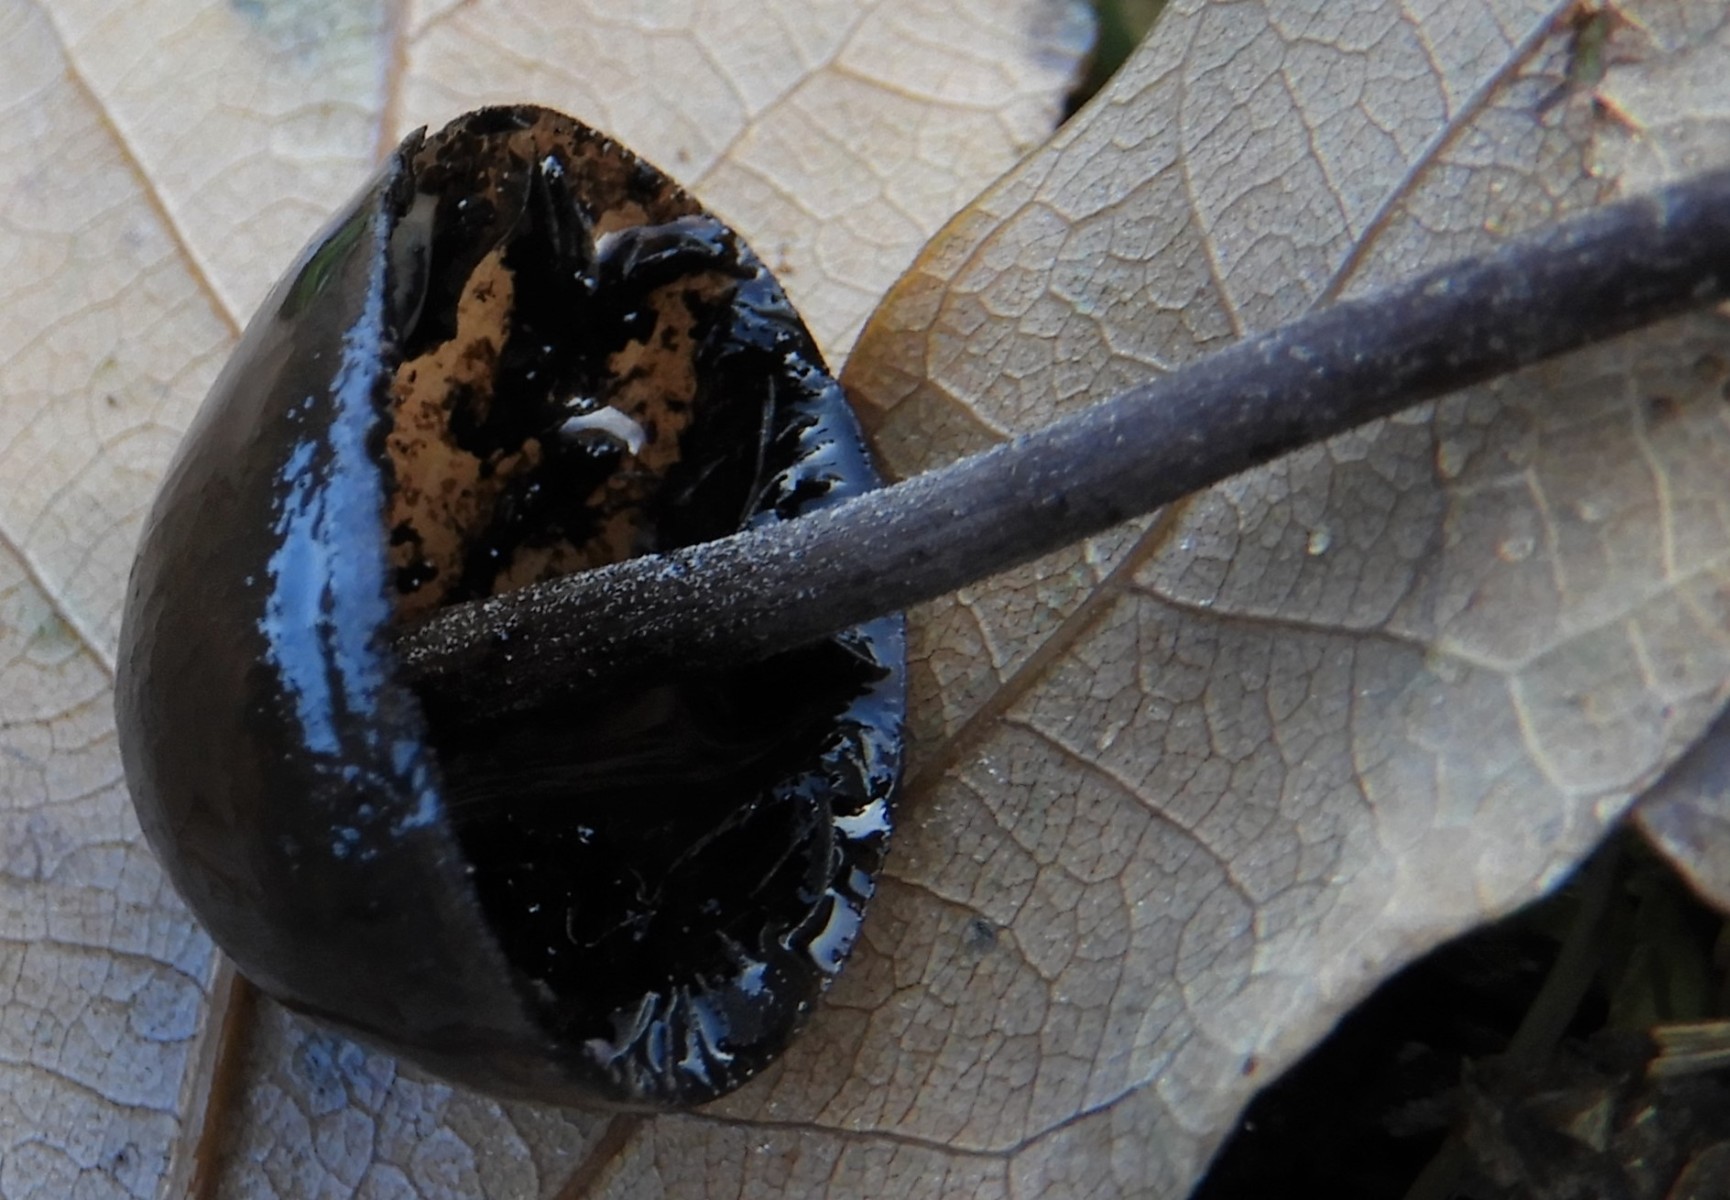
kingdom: Fungi
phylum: Basidiomycota
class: Agaricomycetes
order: Agaricales
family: Bolbitiaceae
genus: Panaeolus
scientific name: Panaeolus
